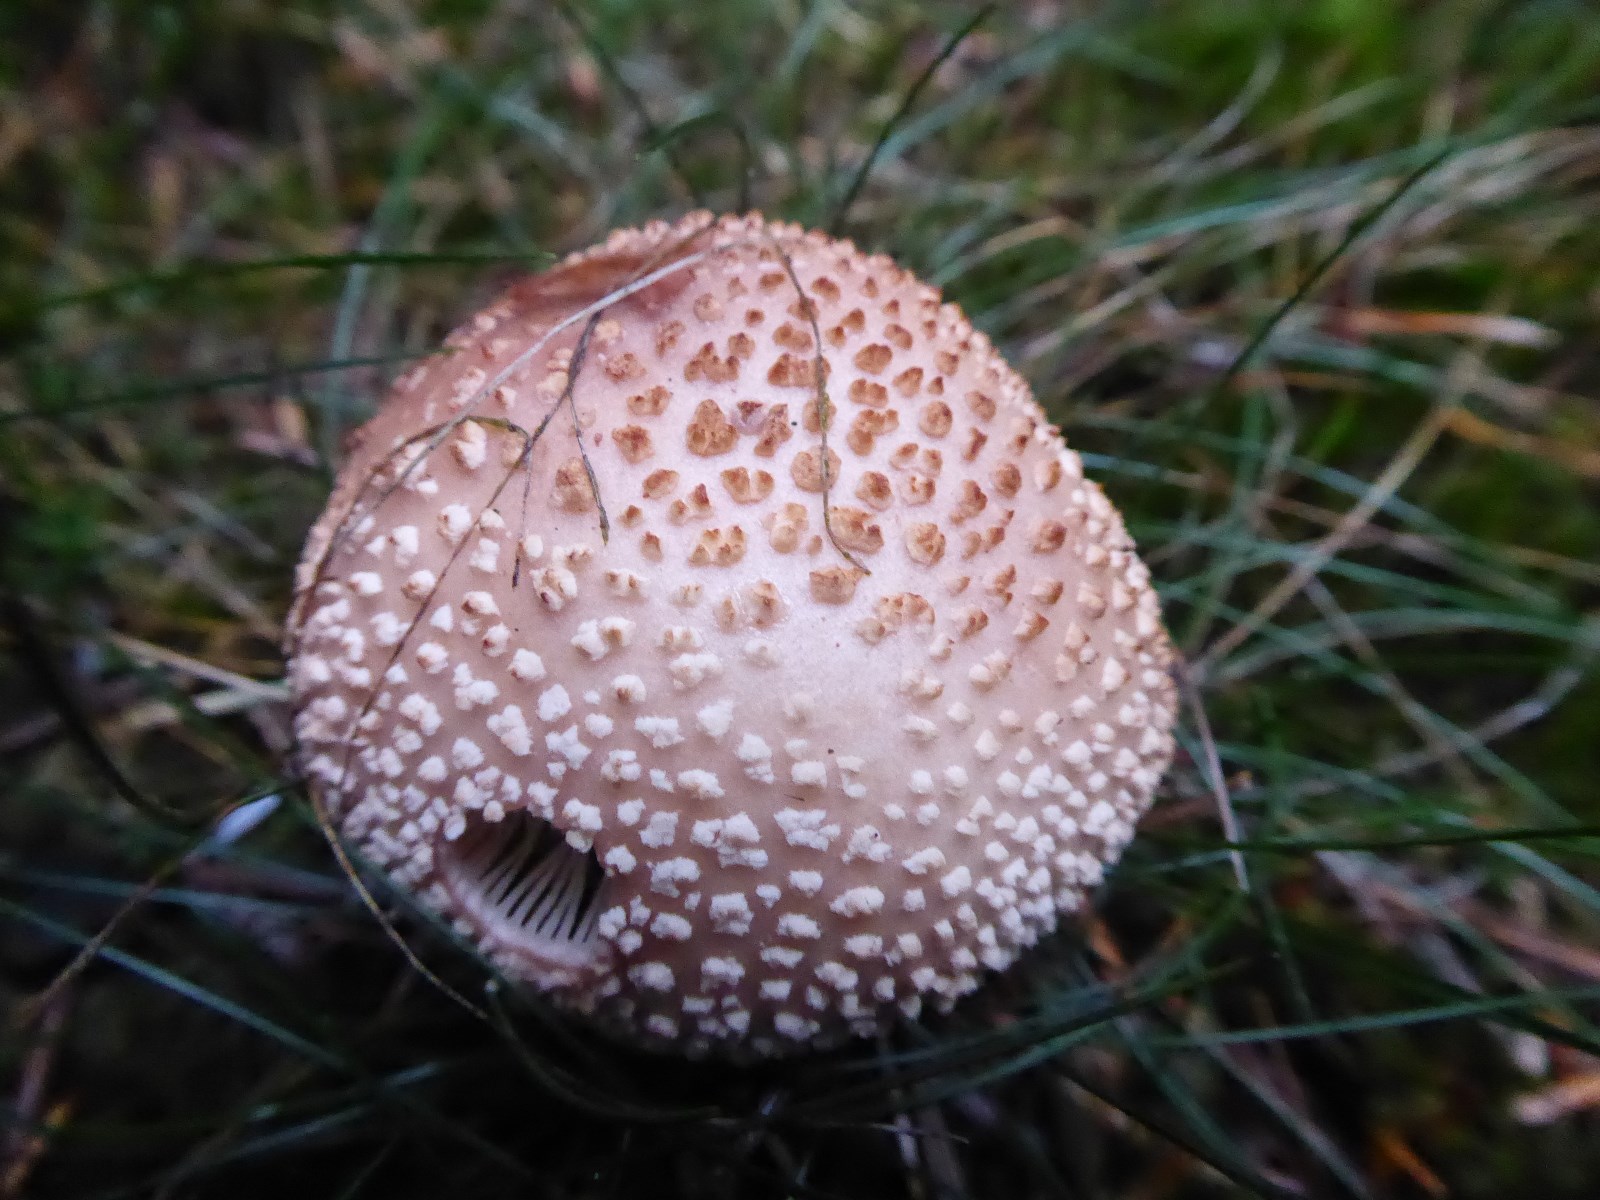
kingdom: Fungi
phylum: Basidiomycota
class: Agaricomycetes
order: Agaricales
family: Amanitaceae
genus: Amanita
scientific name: Amanita rubescens
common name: rødmende fluesvamp
